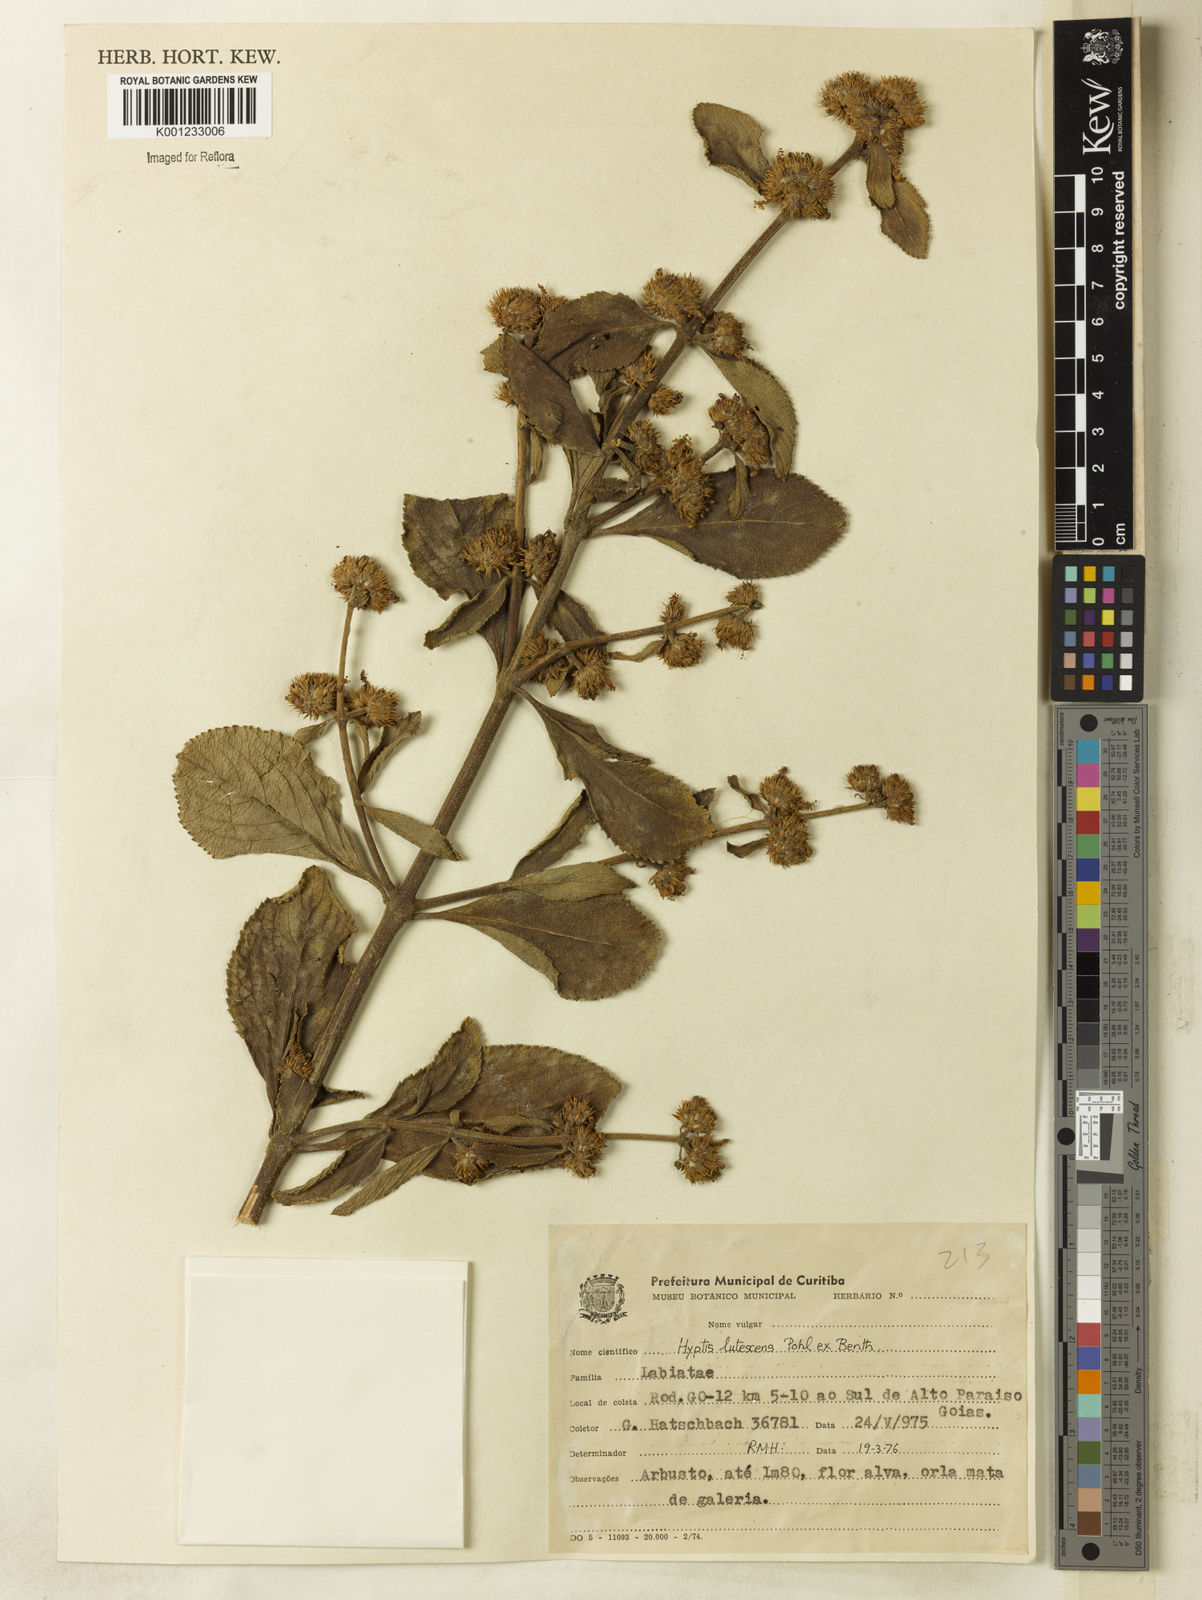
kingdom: Plantae
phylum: Tracheophyta
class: Magnoliopsida
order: Lamiales
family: Lamiaceae
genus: Hyptis
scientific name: Hyptis lutescens
